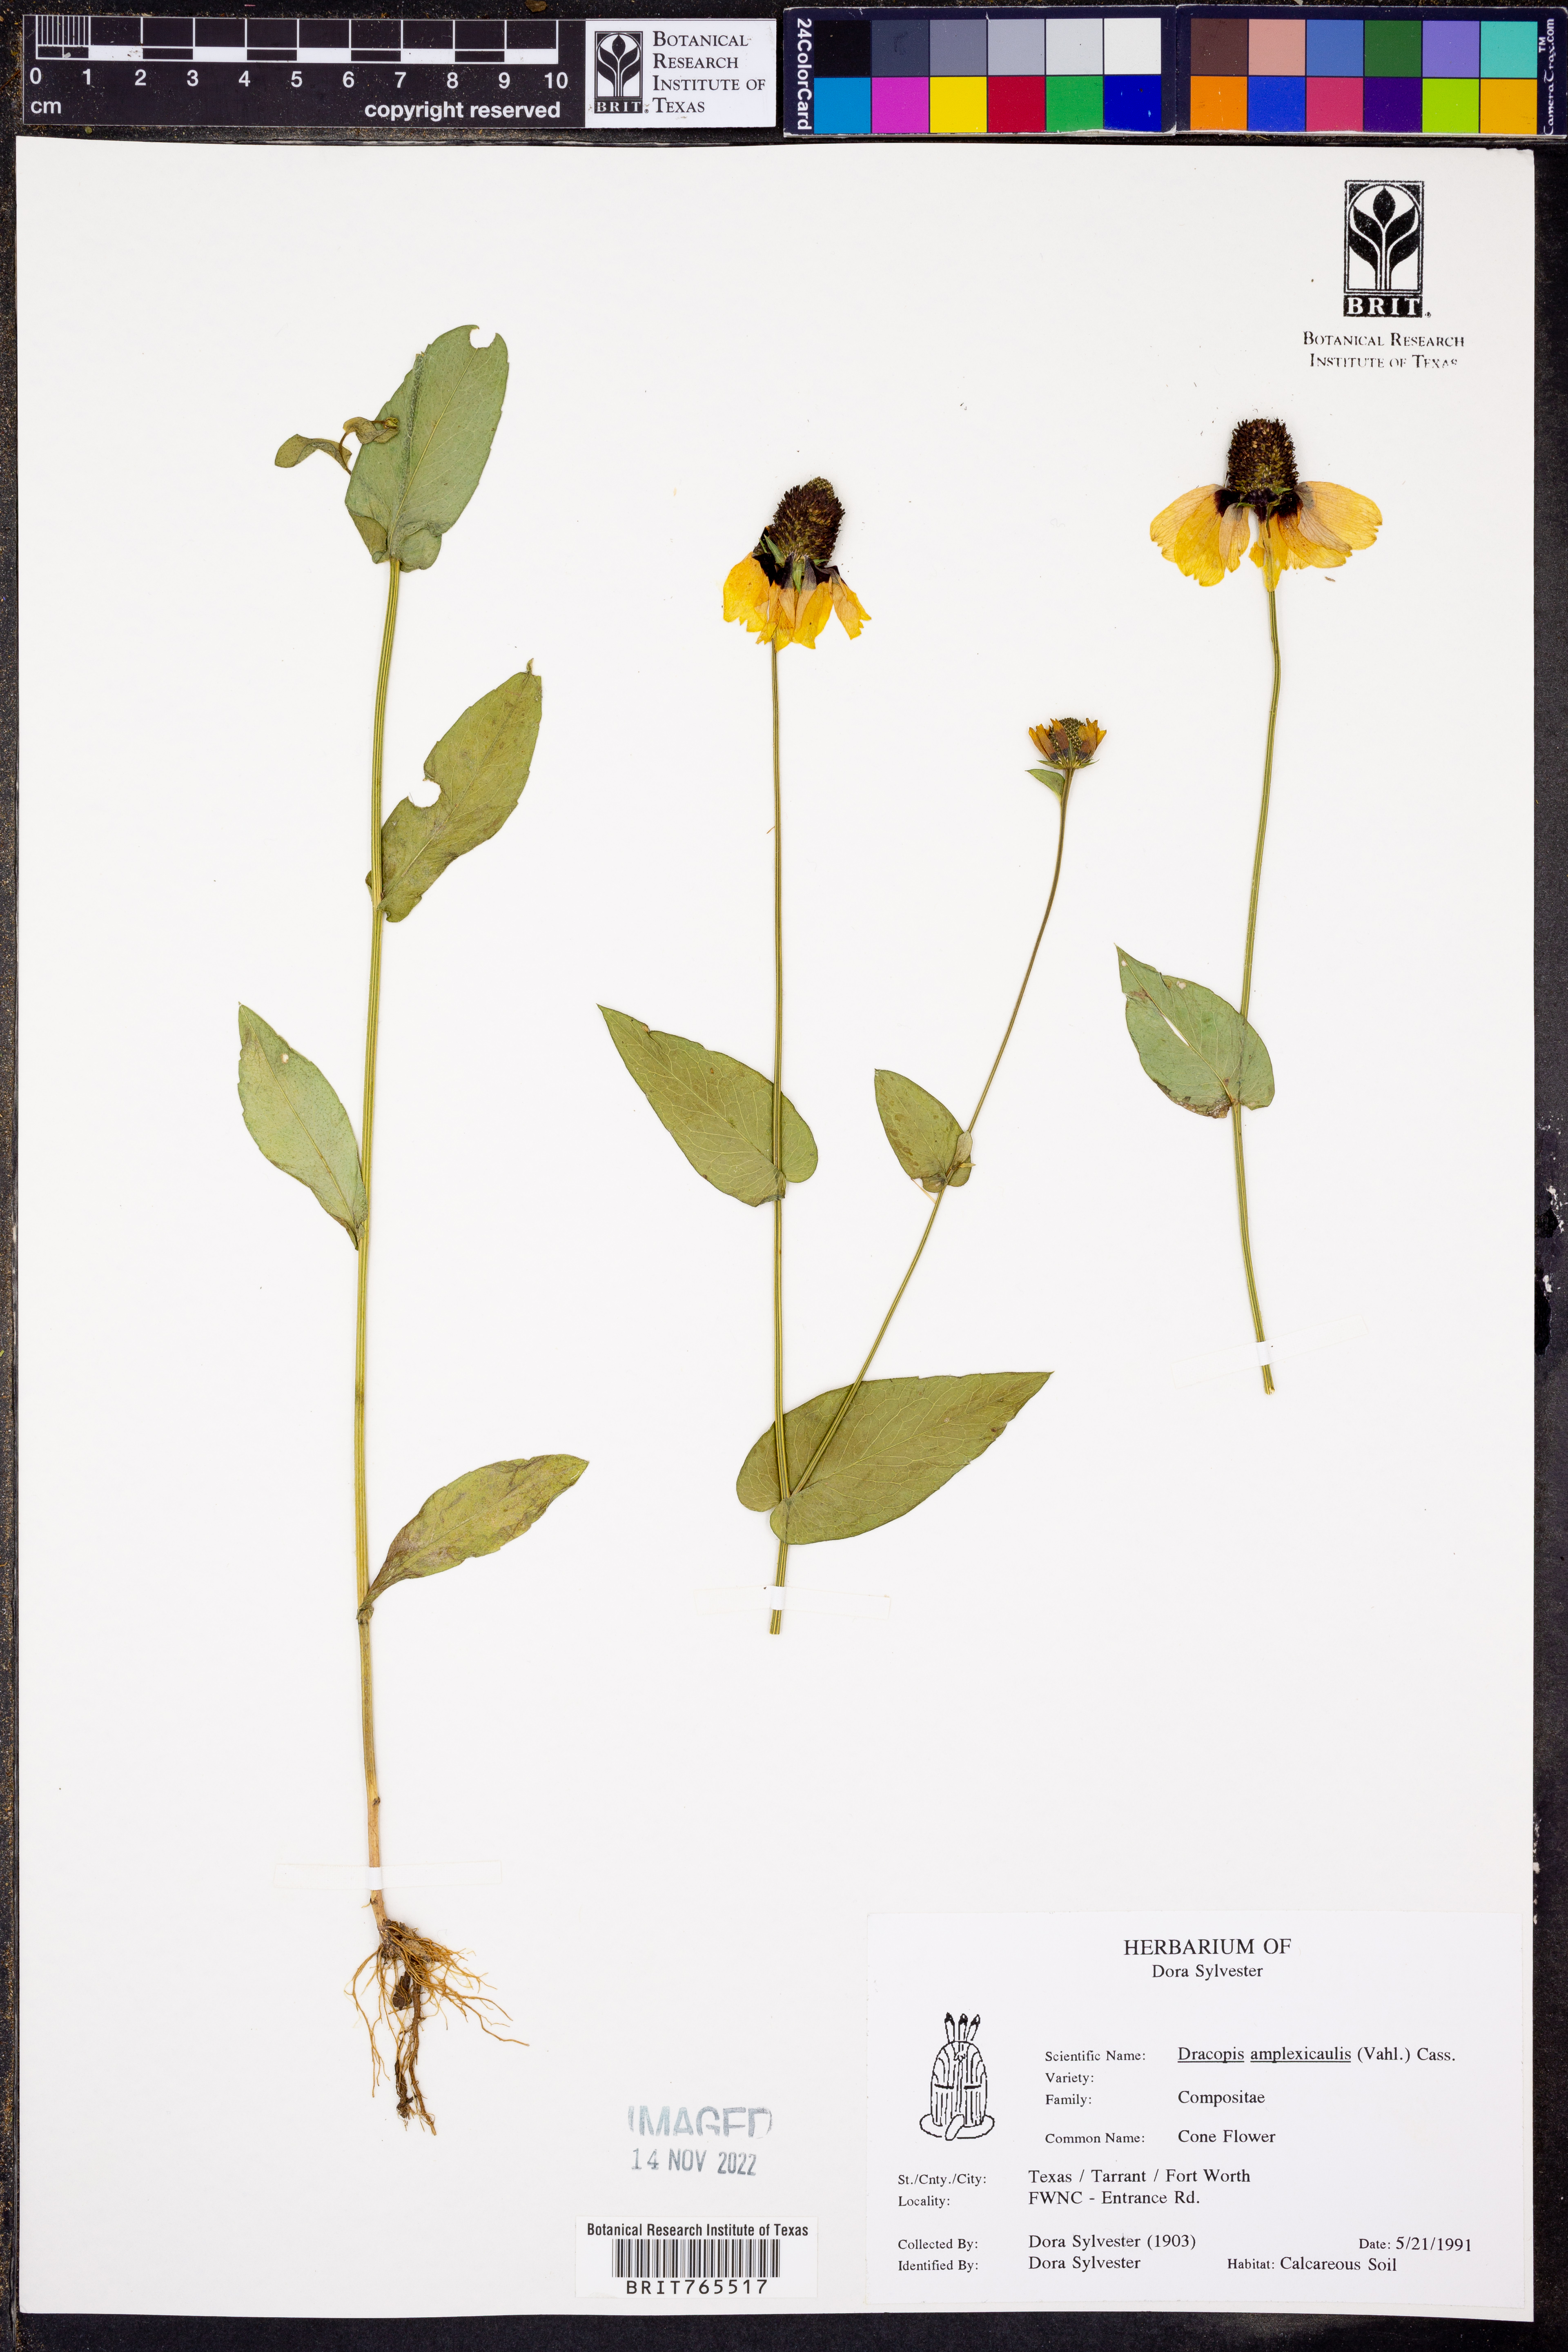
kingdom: Plantae
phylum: Tracheophyta
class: Magnoliopsida
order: Asterales
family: Asteraceae
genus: Rudbeckia
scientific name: Rudbeckia amplexicaulis
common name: Clasping-leaf coneflower
